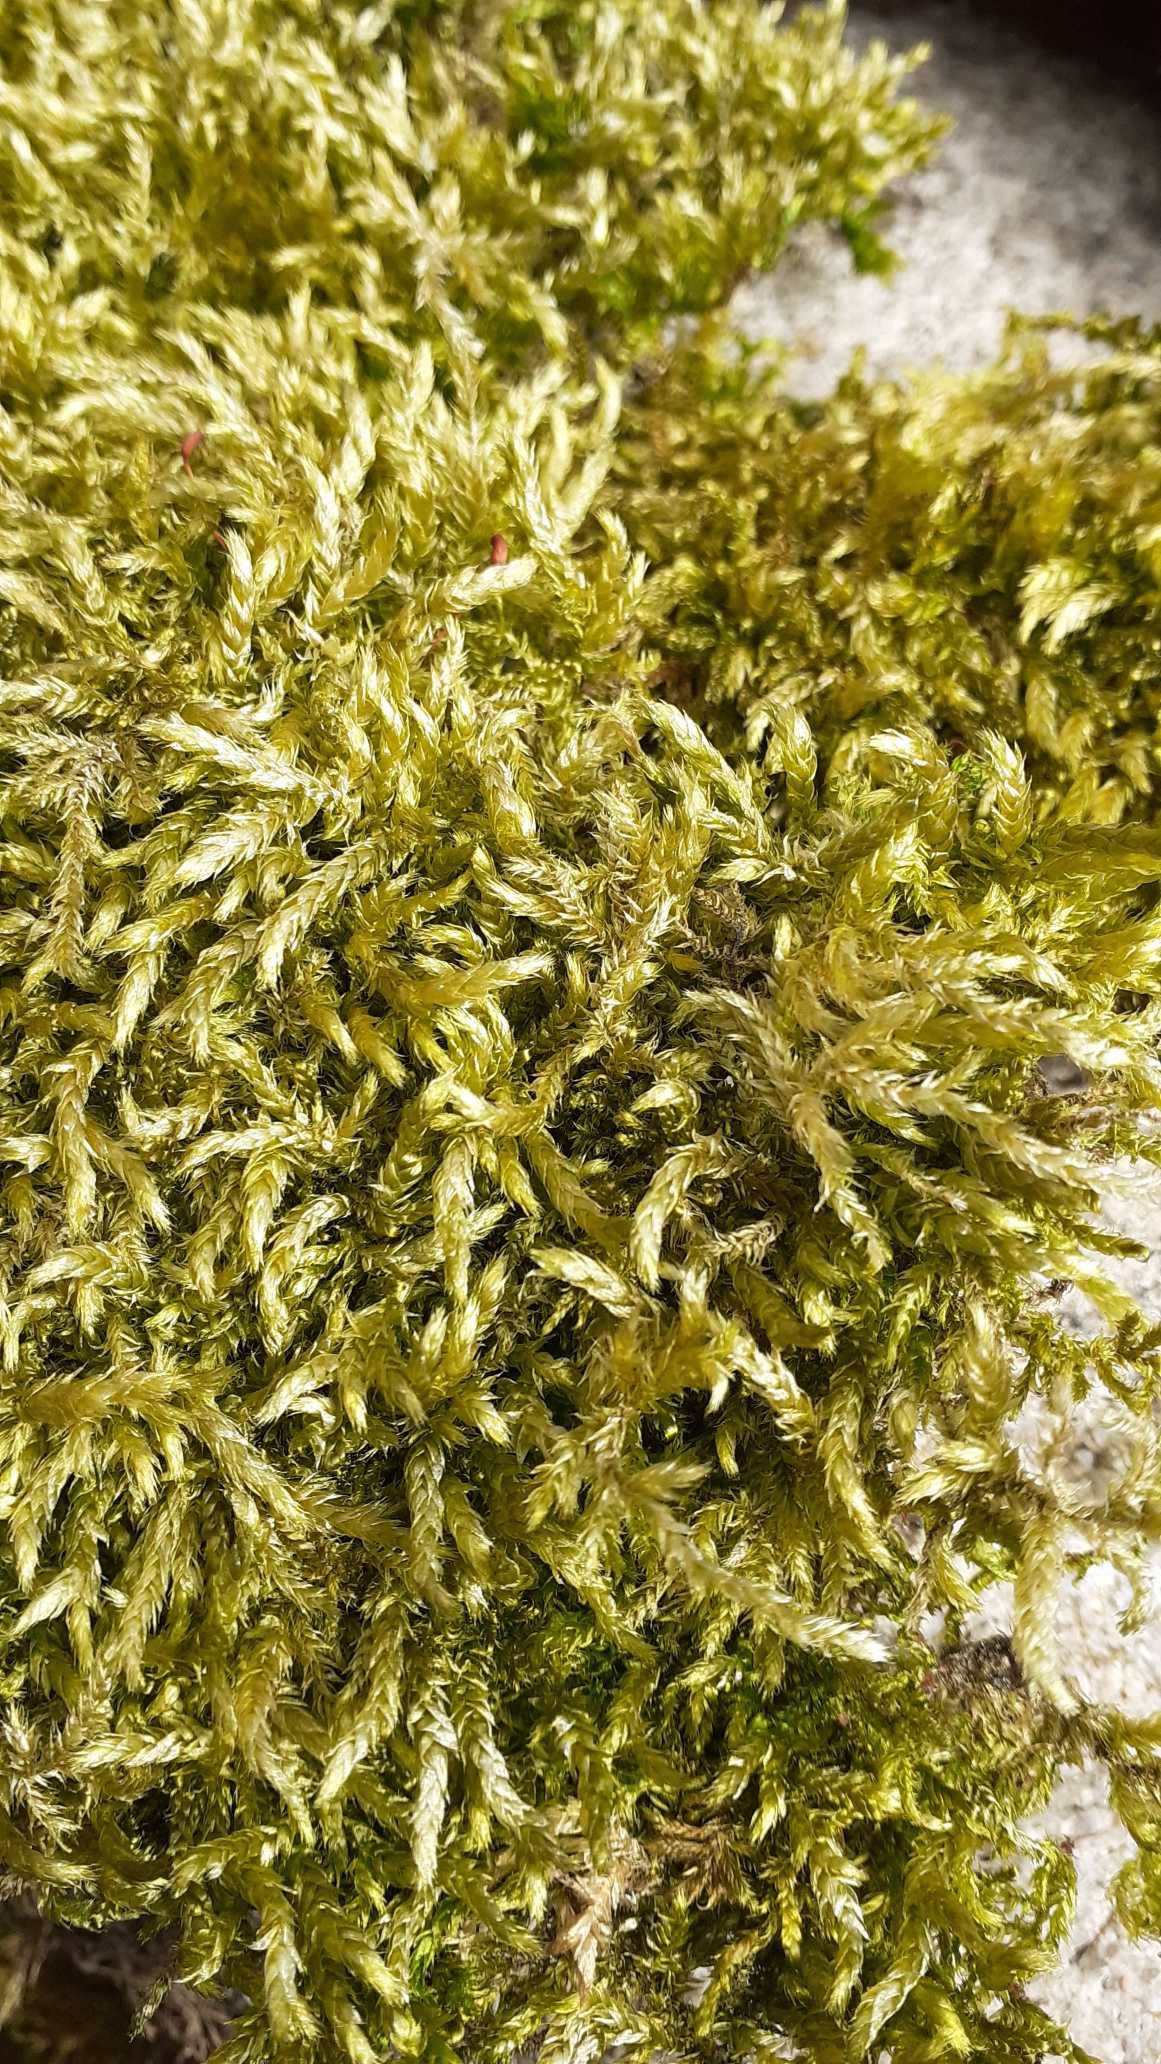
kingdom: Plantae
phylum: Bryophyta
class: Bryopsida
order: Hypnales
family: Brachytheciaceae
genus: Brachythecium
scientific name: Brachythecium rutabulum
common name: Almindelig kortkapsel
